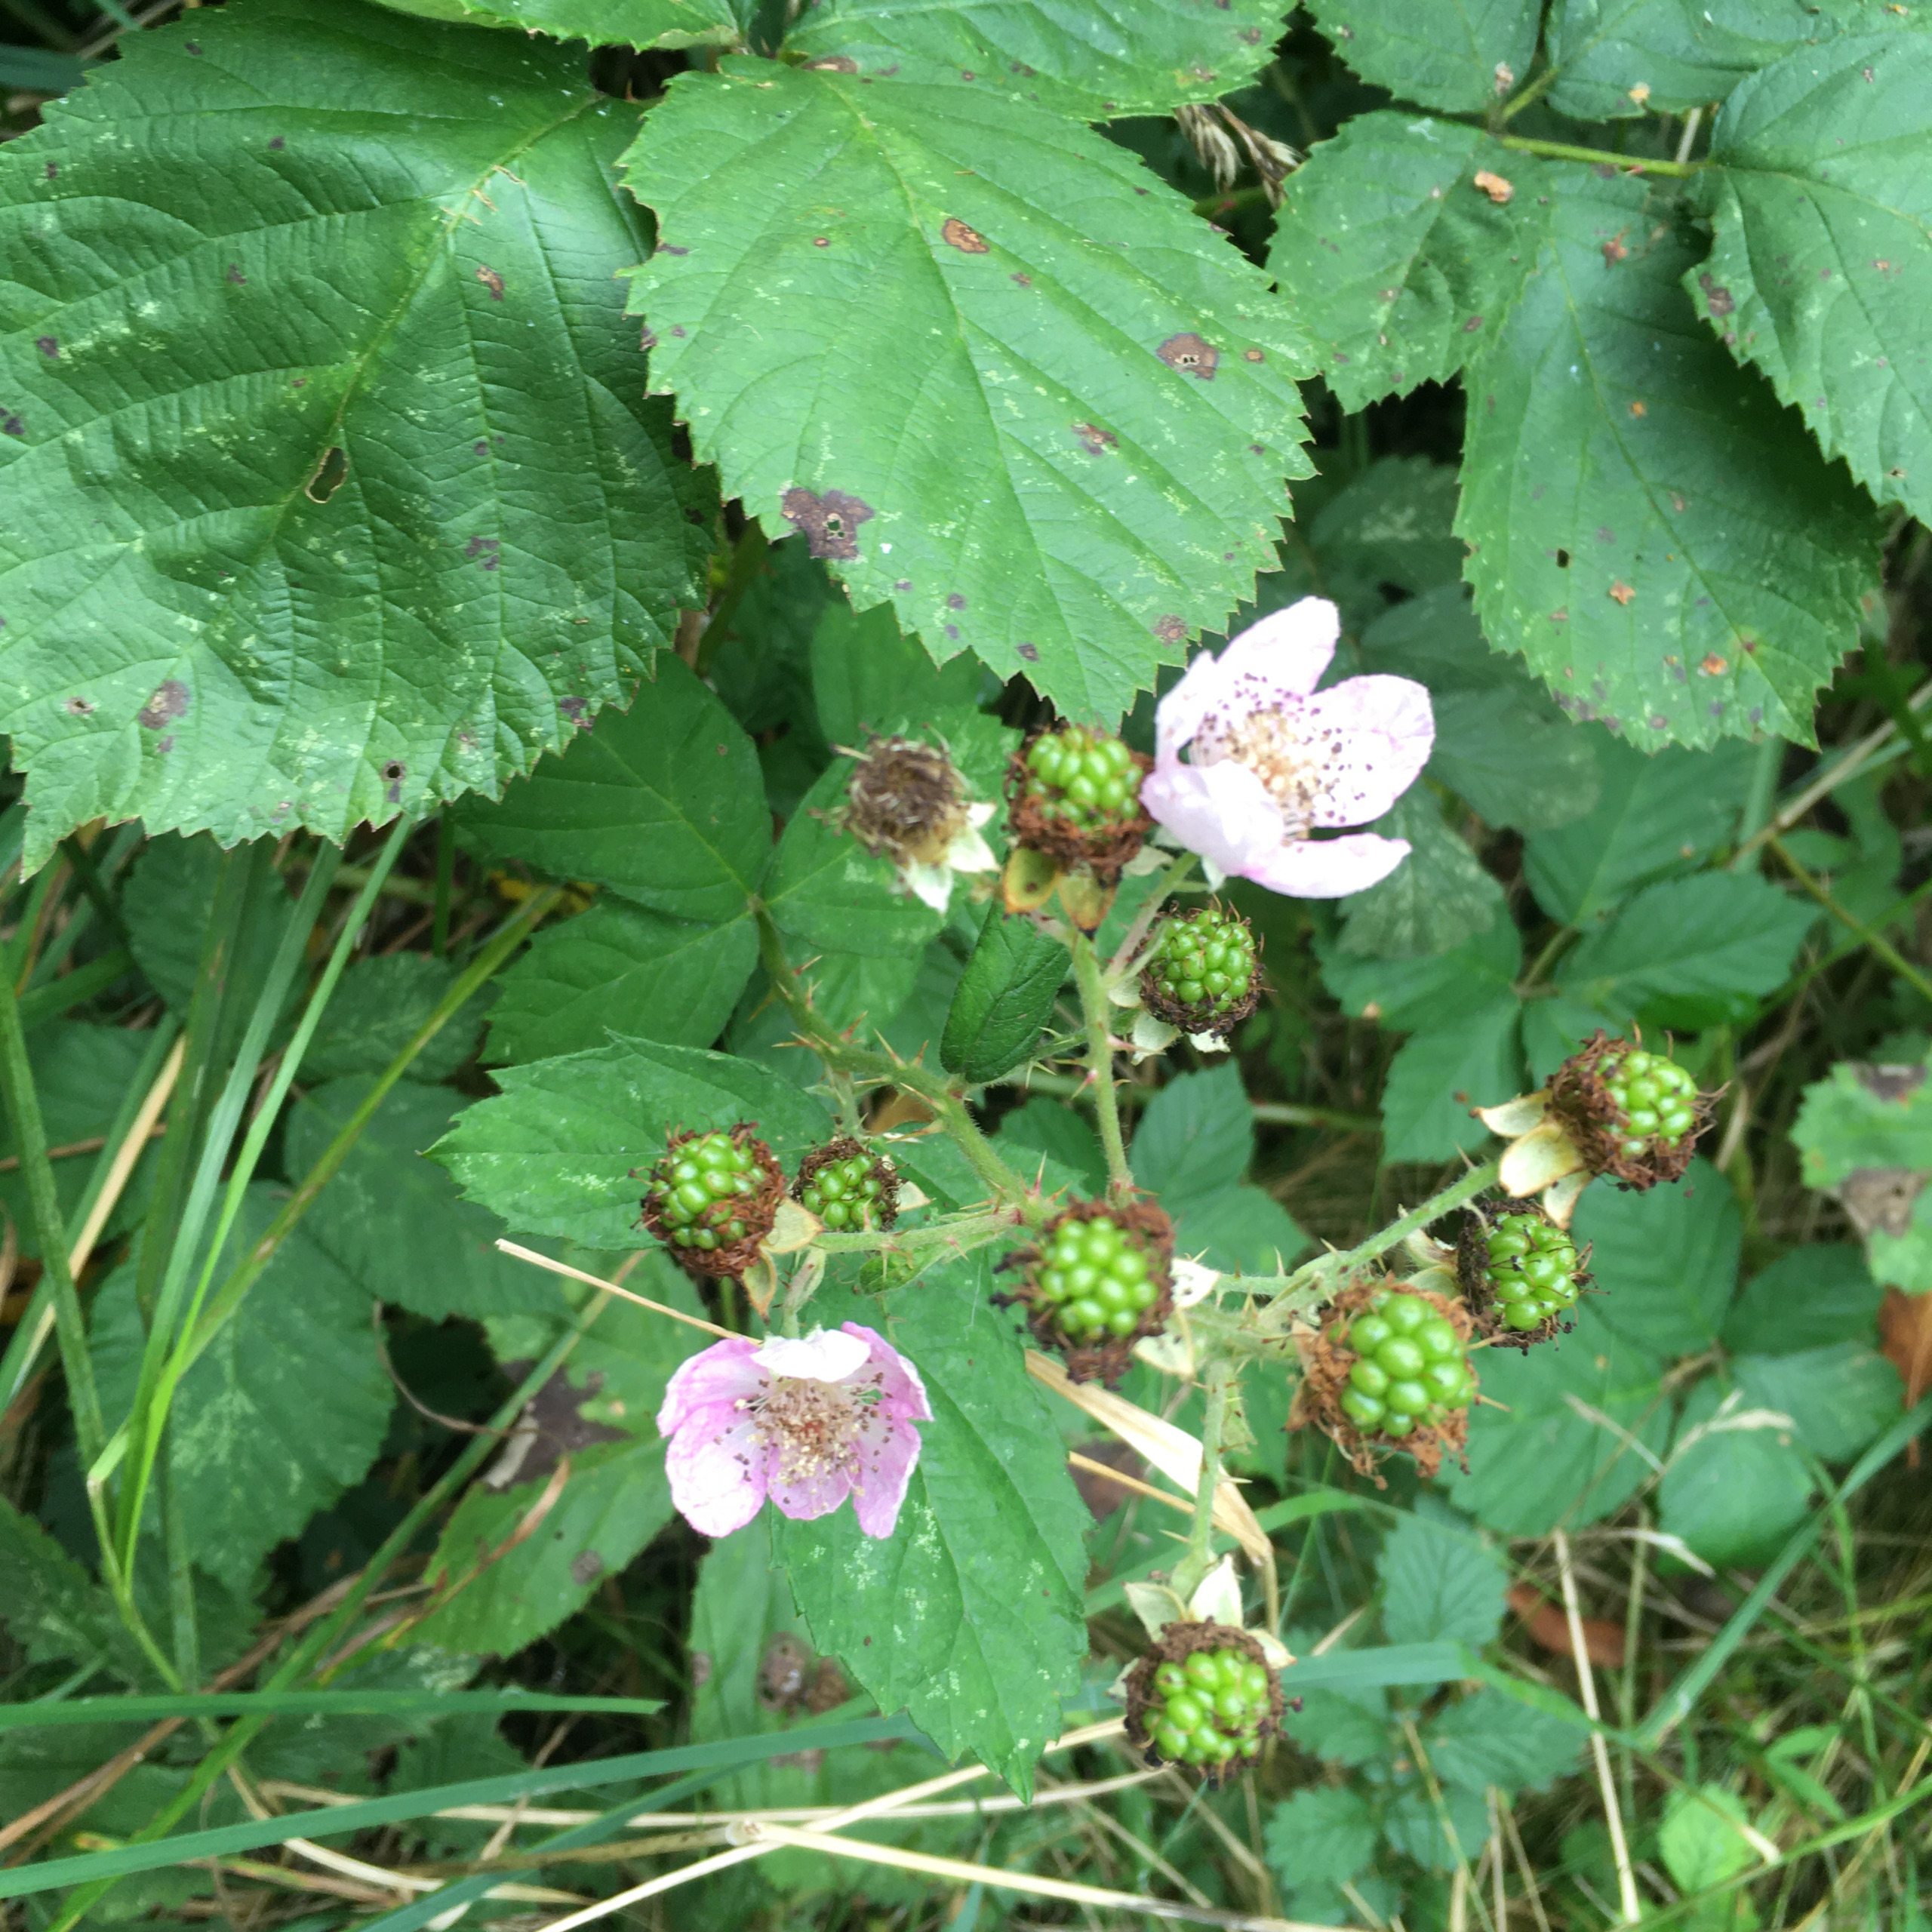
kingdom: Plantae
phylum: Tracheophyta
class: Magnoliopsida
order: Rosales
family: Rosaceae
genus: Rubus
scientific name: Rubus armeniacus
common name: Armensk brombær
